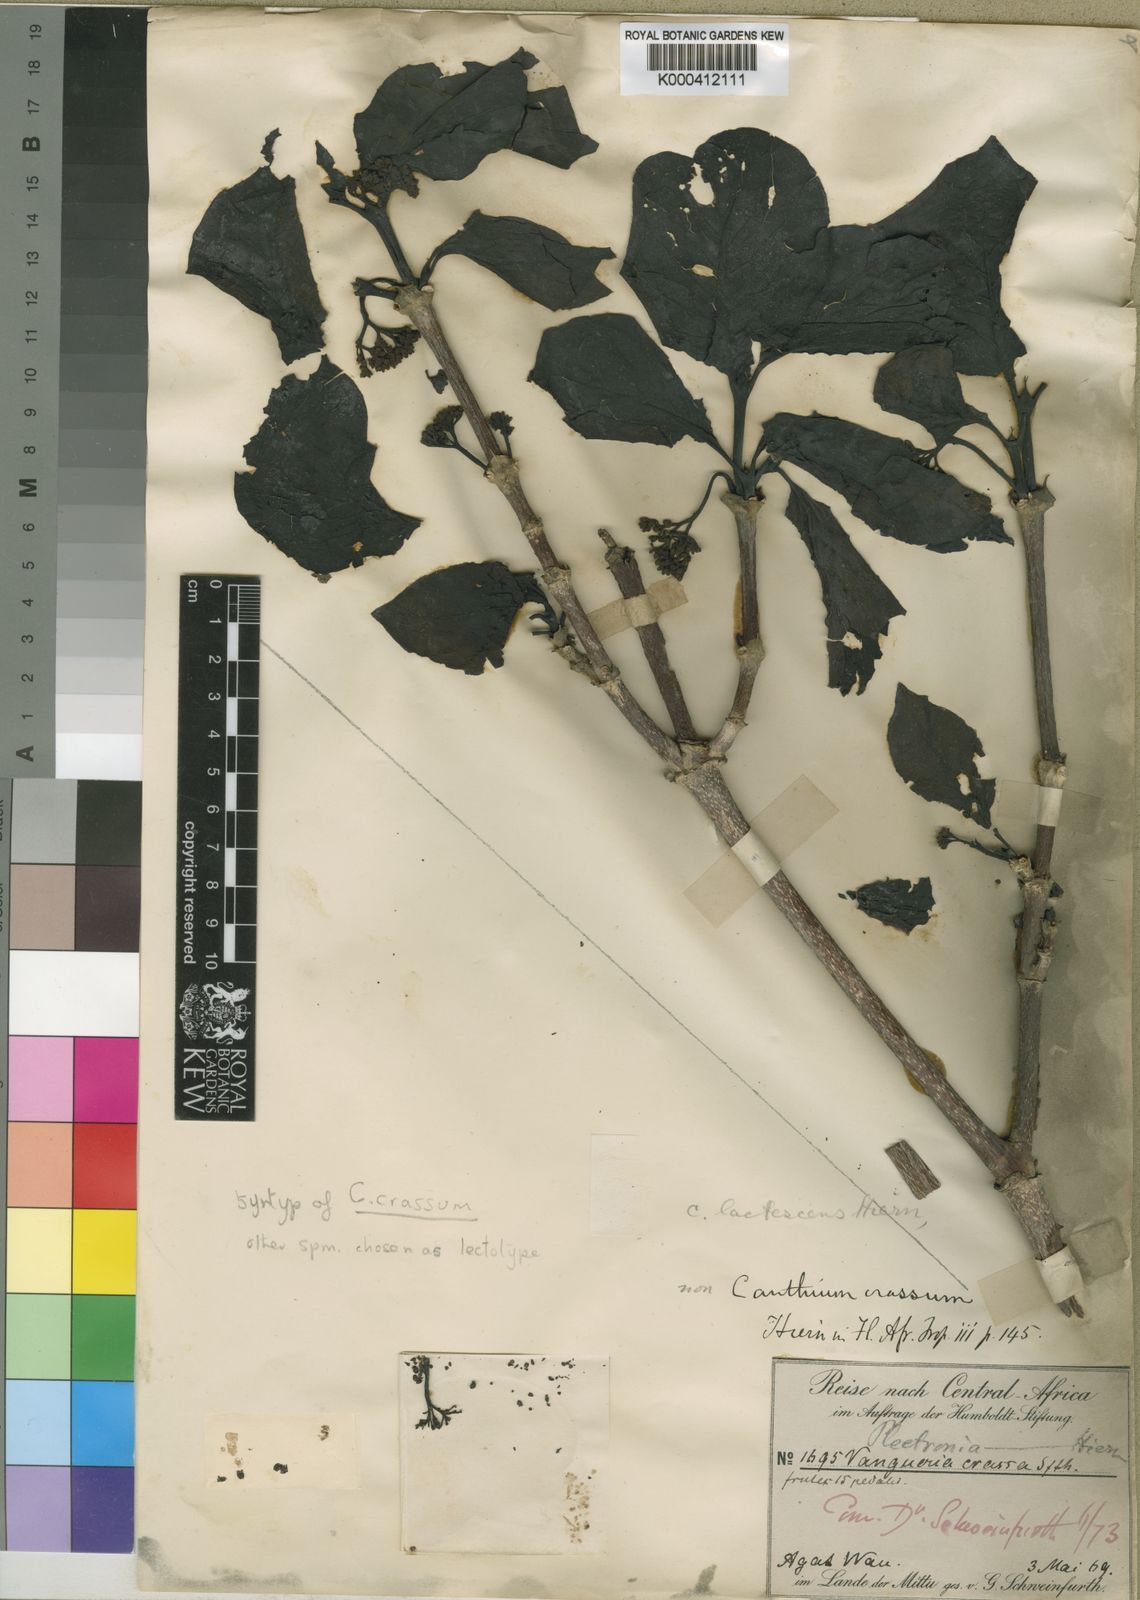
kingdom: Plantae
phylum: Tracheophyta
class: Magnoliopsida
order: Gentianales
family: Rubiaceae
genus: Multidentia
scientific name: Multidentia crassa
